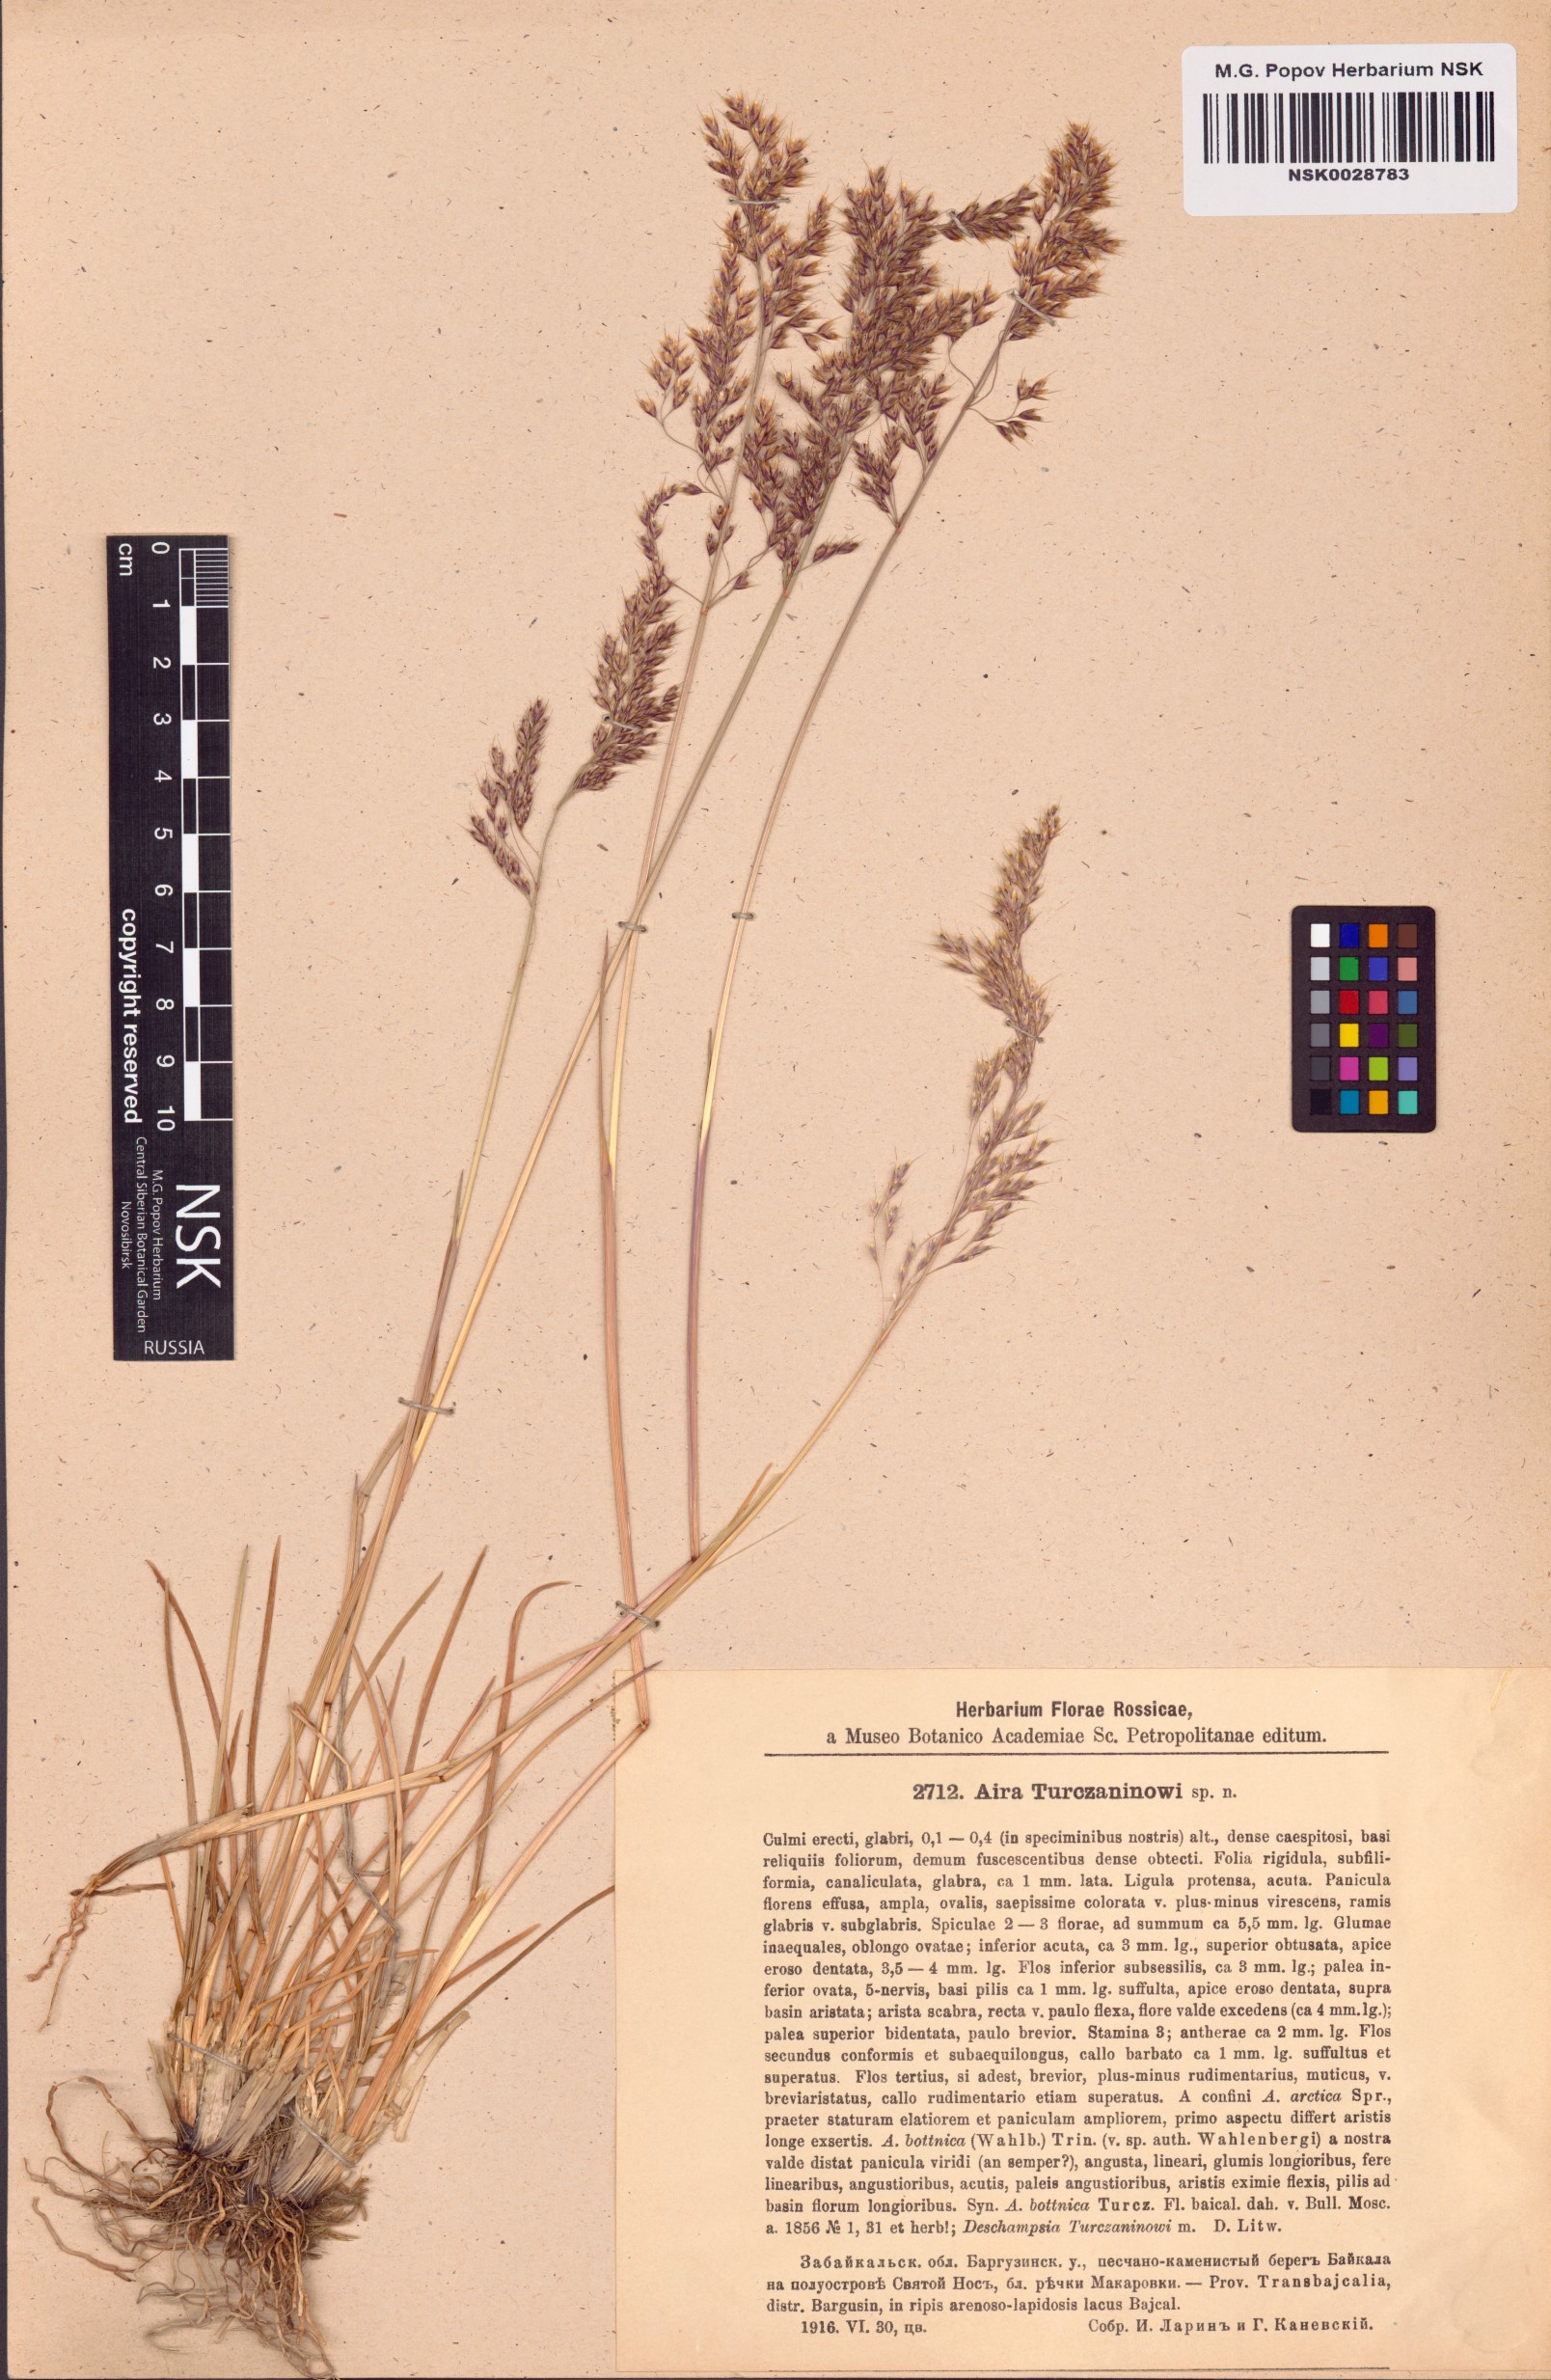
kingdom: Plantae
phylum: Tracheophyta
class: Liliopsida
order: Poales
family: Poaceae
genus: Deschampsia
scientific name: Deschampsia cespitosa
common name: Tufted hair-grass
